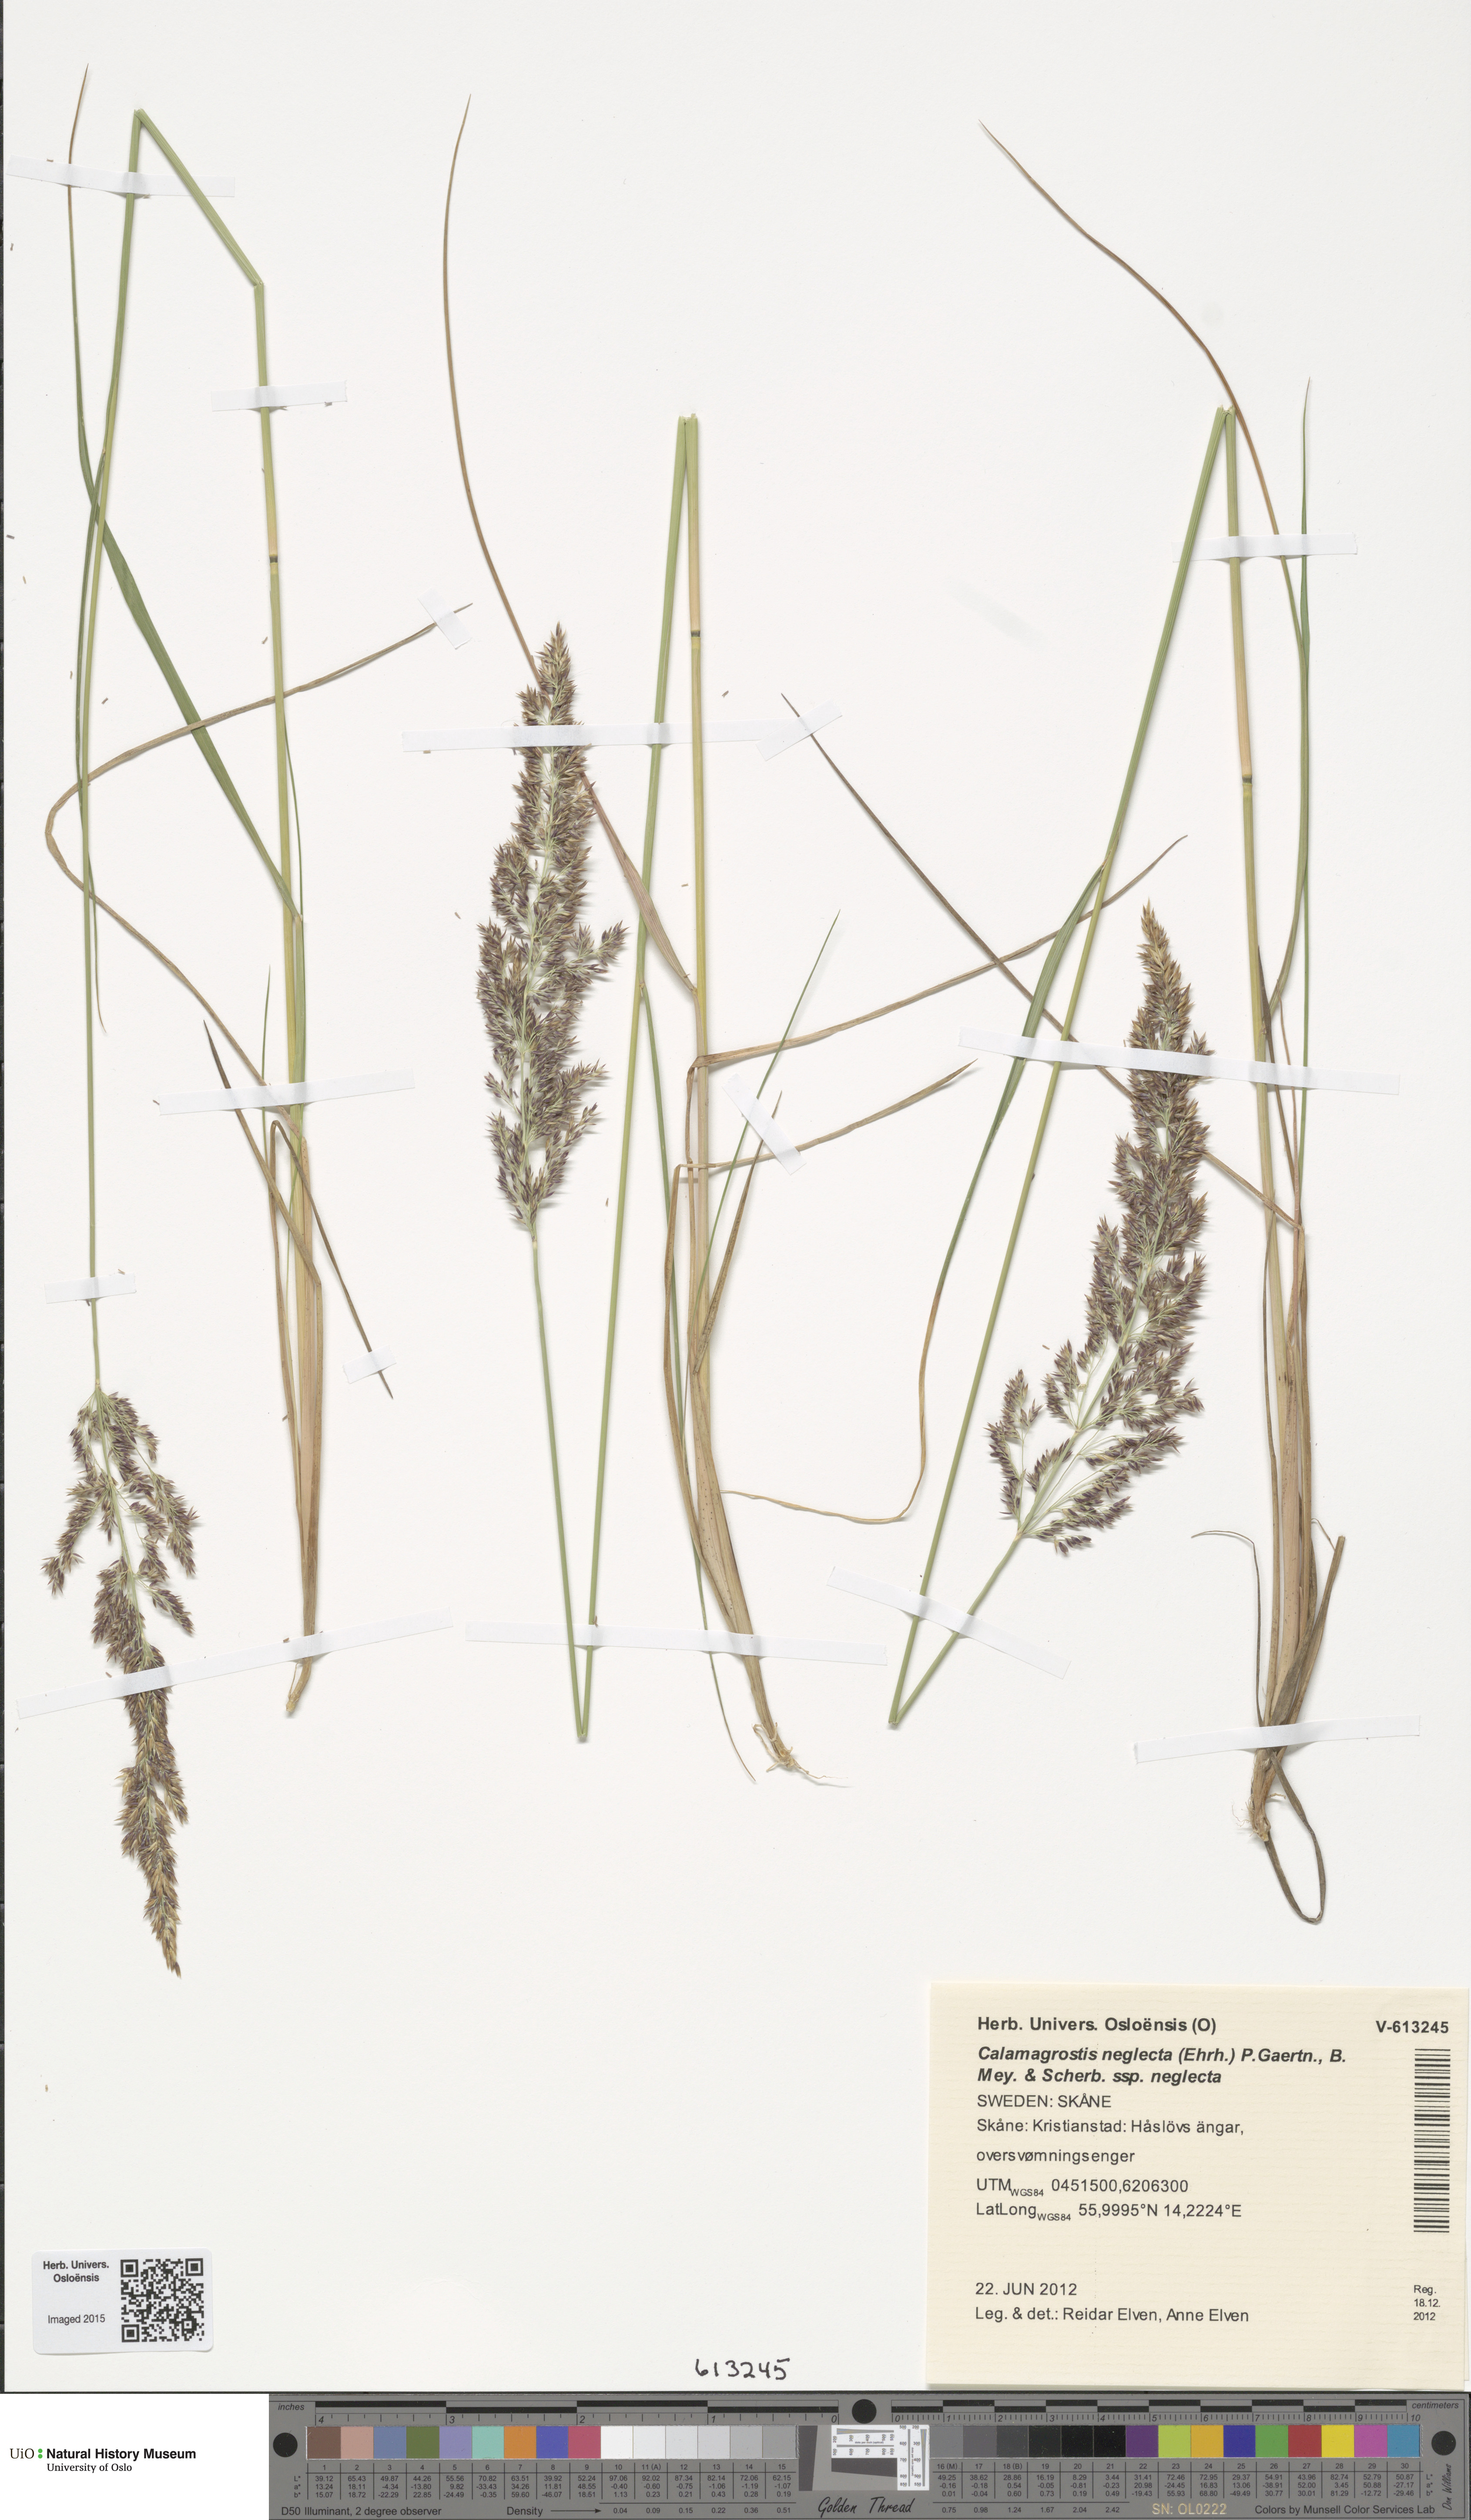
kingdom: Plantae
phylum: Tracheophyta
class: Liliopsida
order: Poales
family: Poaceae
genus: Achnatherum
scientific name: Achnatherum calamagrostis
